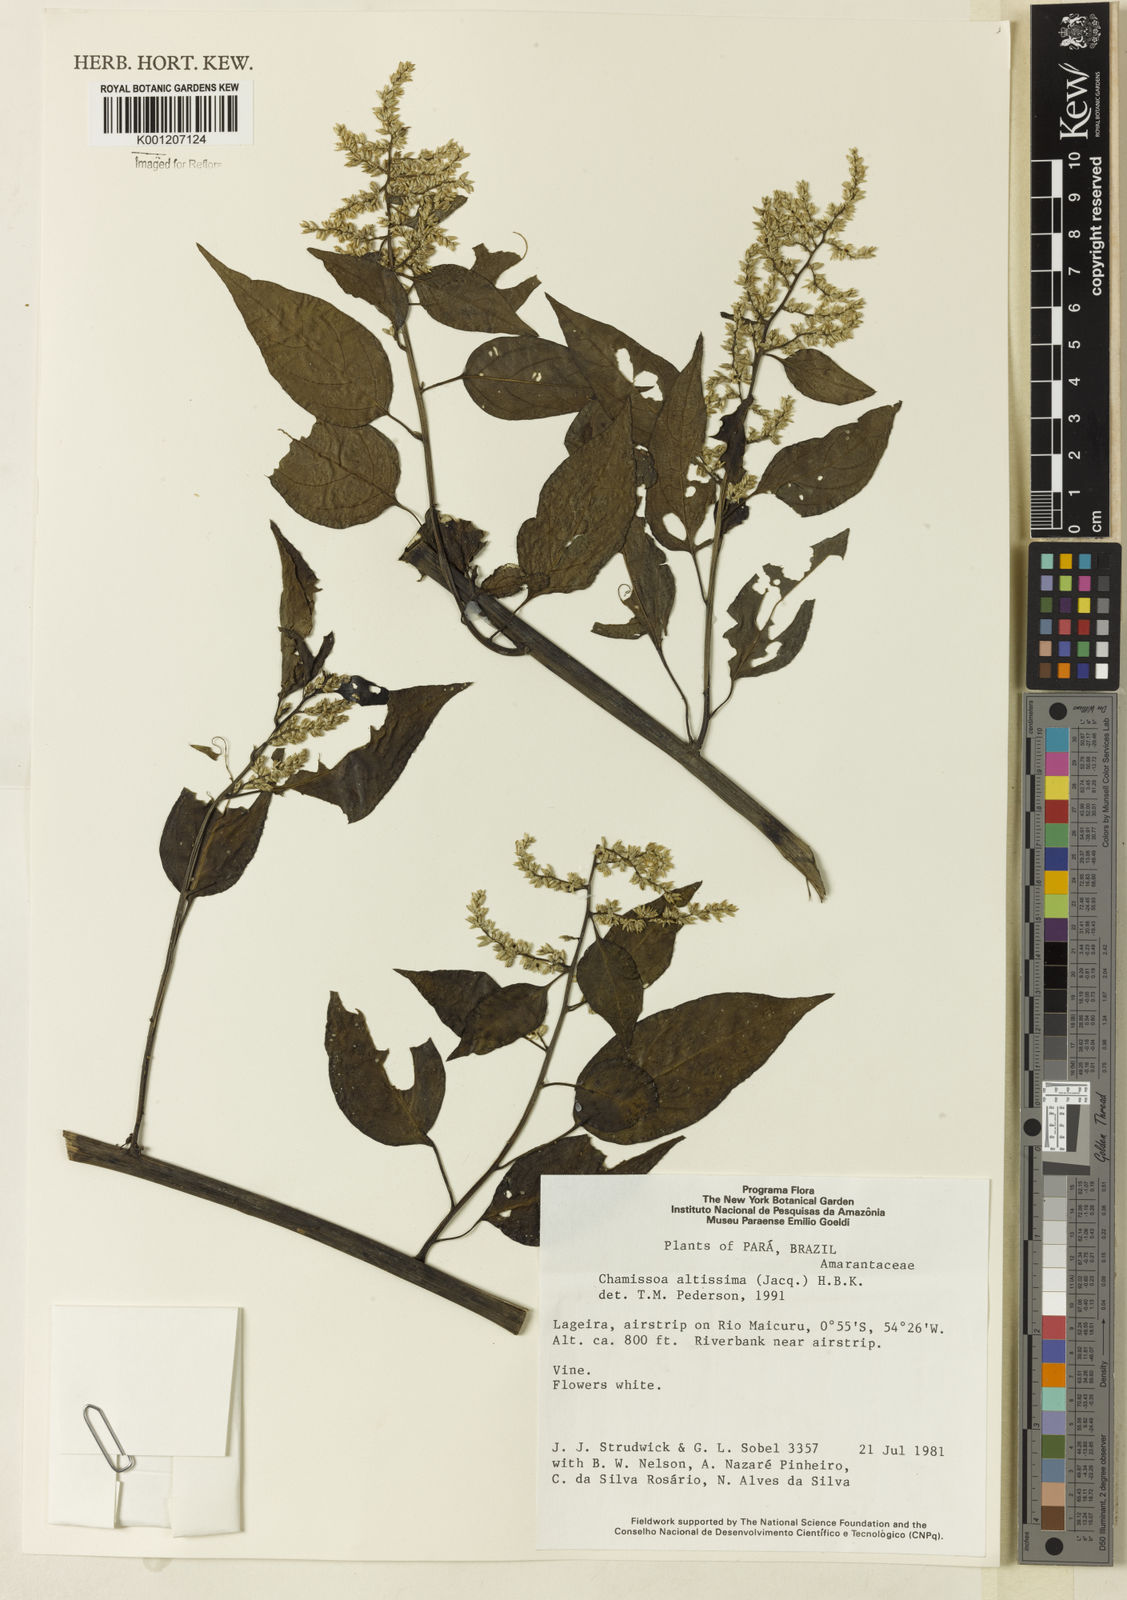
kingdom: Plantae
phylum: Tracheophyta
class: Magnoliopsida
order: Caryophyllales
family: Amaranthaceae
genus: Chamissoa
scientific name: Chamissoa altissima
